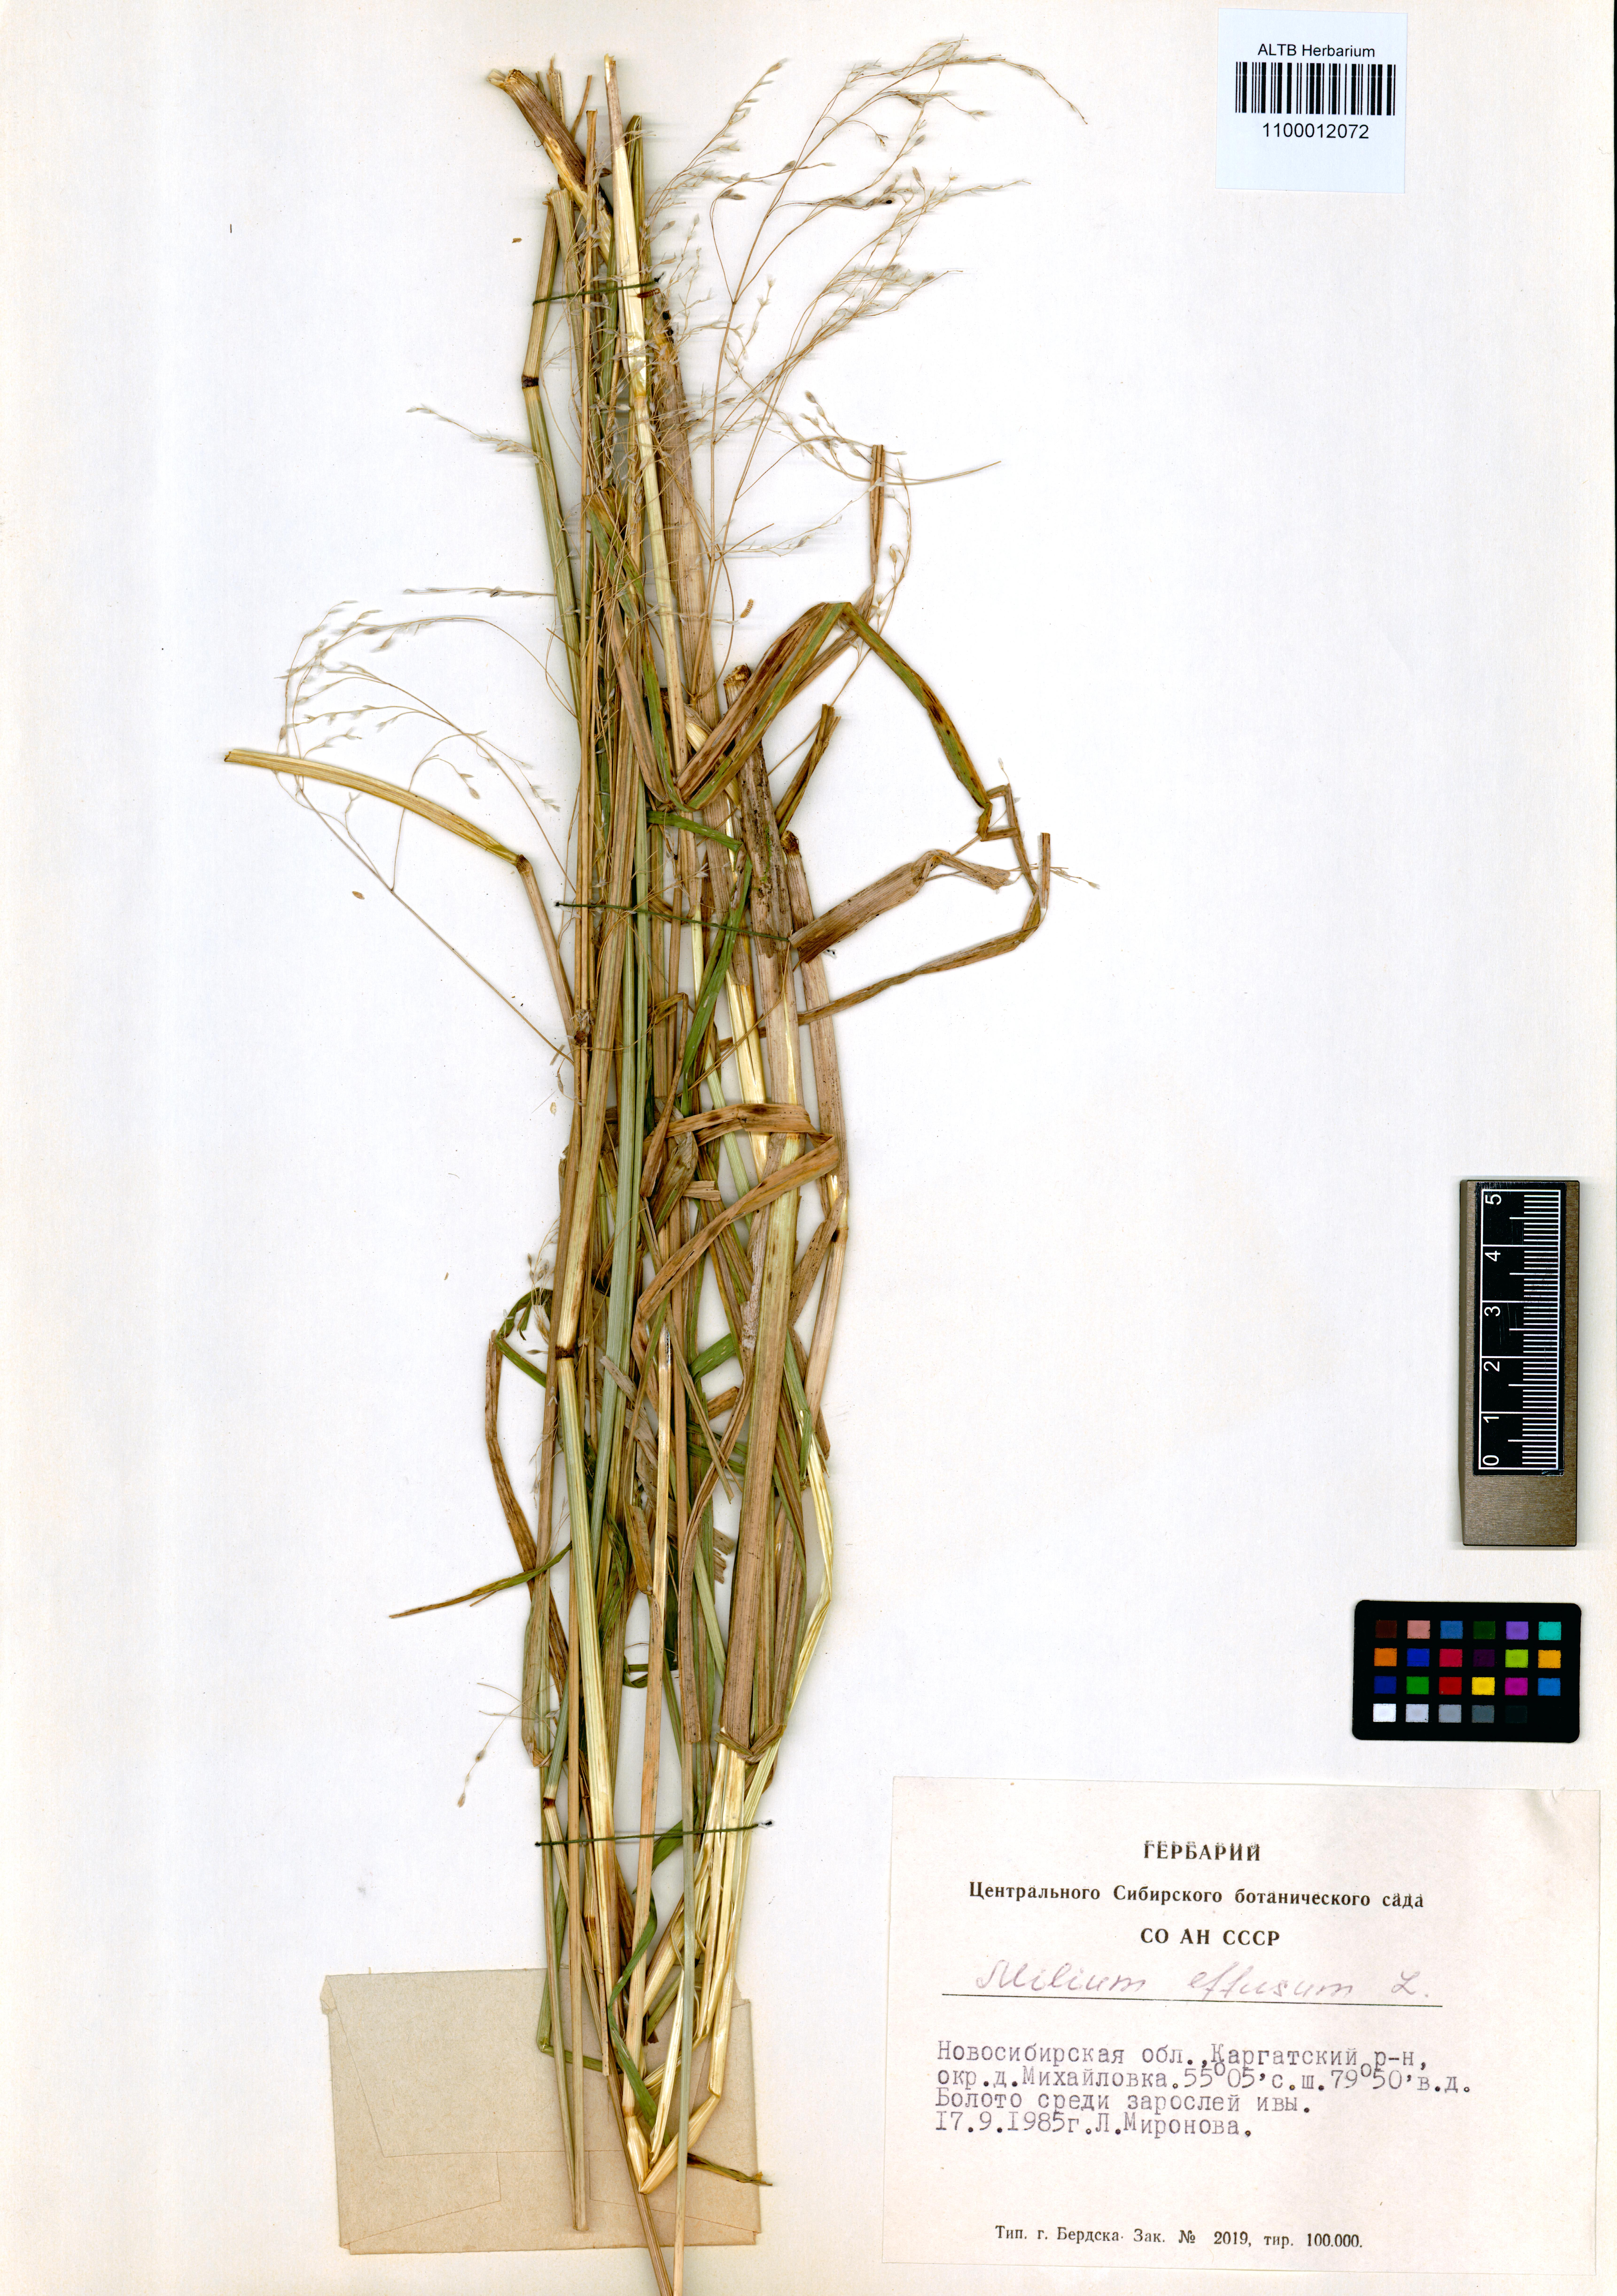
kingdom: Plantae
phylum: Tracheophyta
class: Liliopsida
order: Poales
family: Poaceae
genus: Milium
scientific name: Milium effusum
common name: Wood millet
